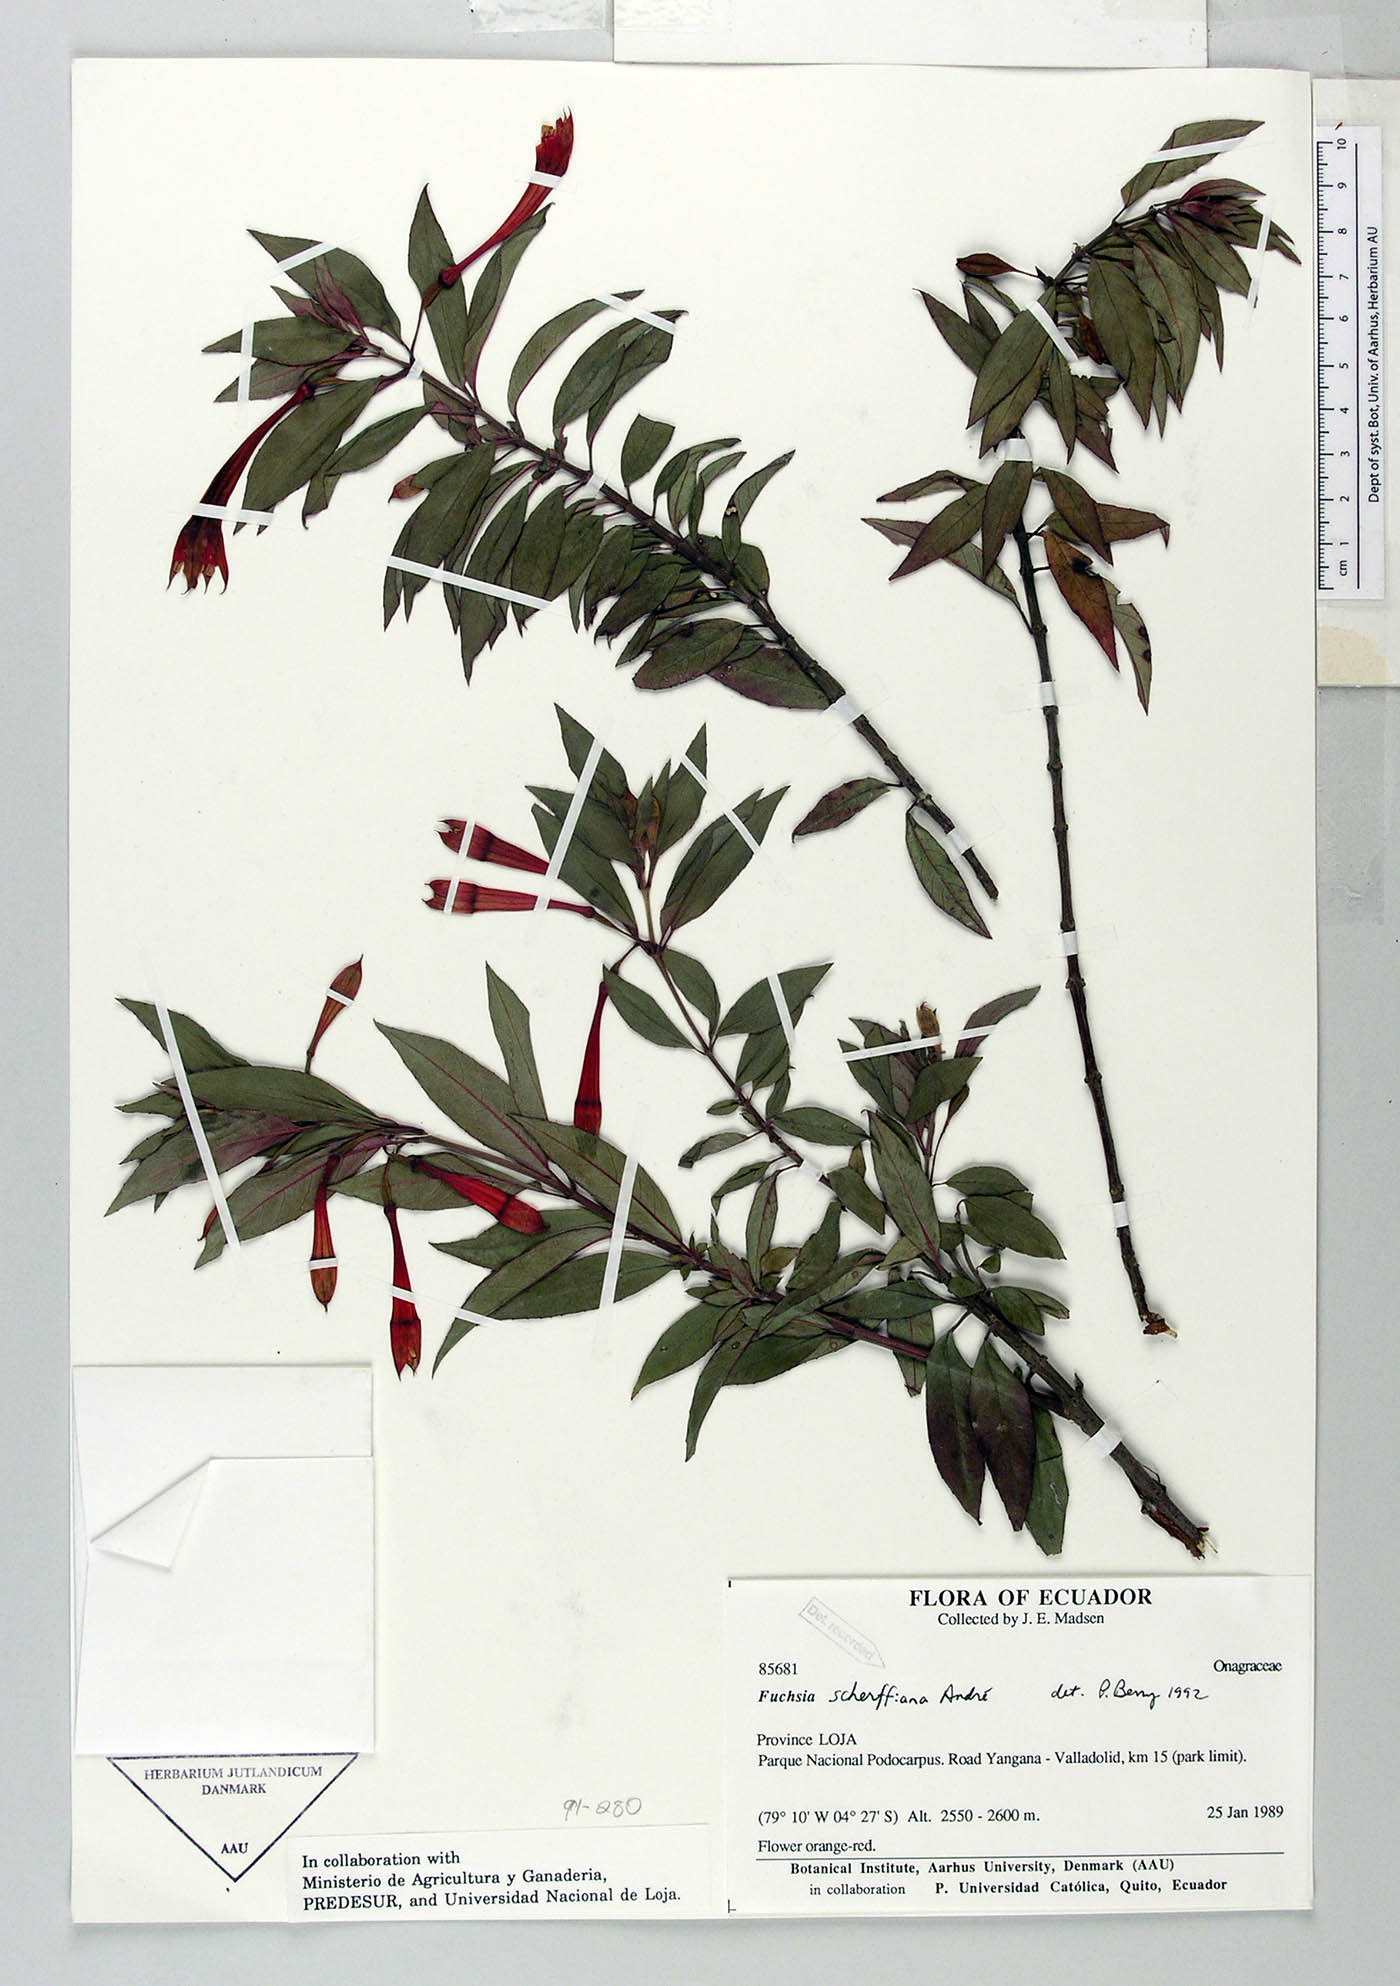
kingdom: Plantae
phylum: Tracheophyta
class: Magnoliopsida
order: Myrtales
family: Onagraceae
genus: Fuchsia
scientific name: Fuchsia scherffiana
